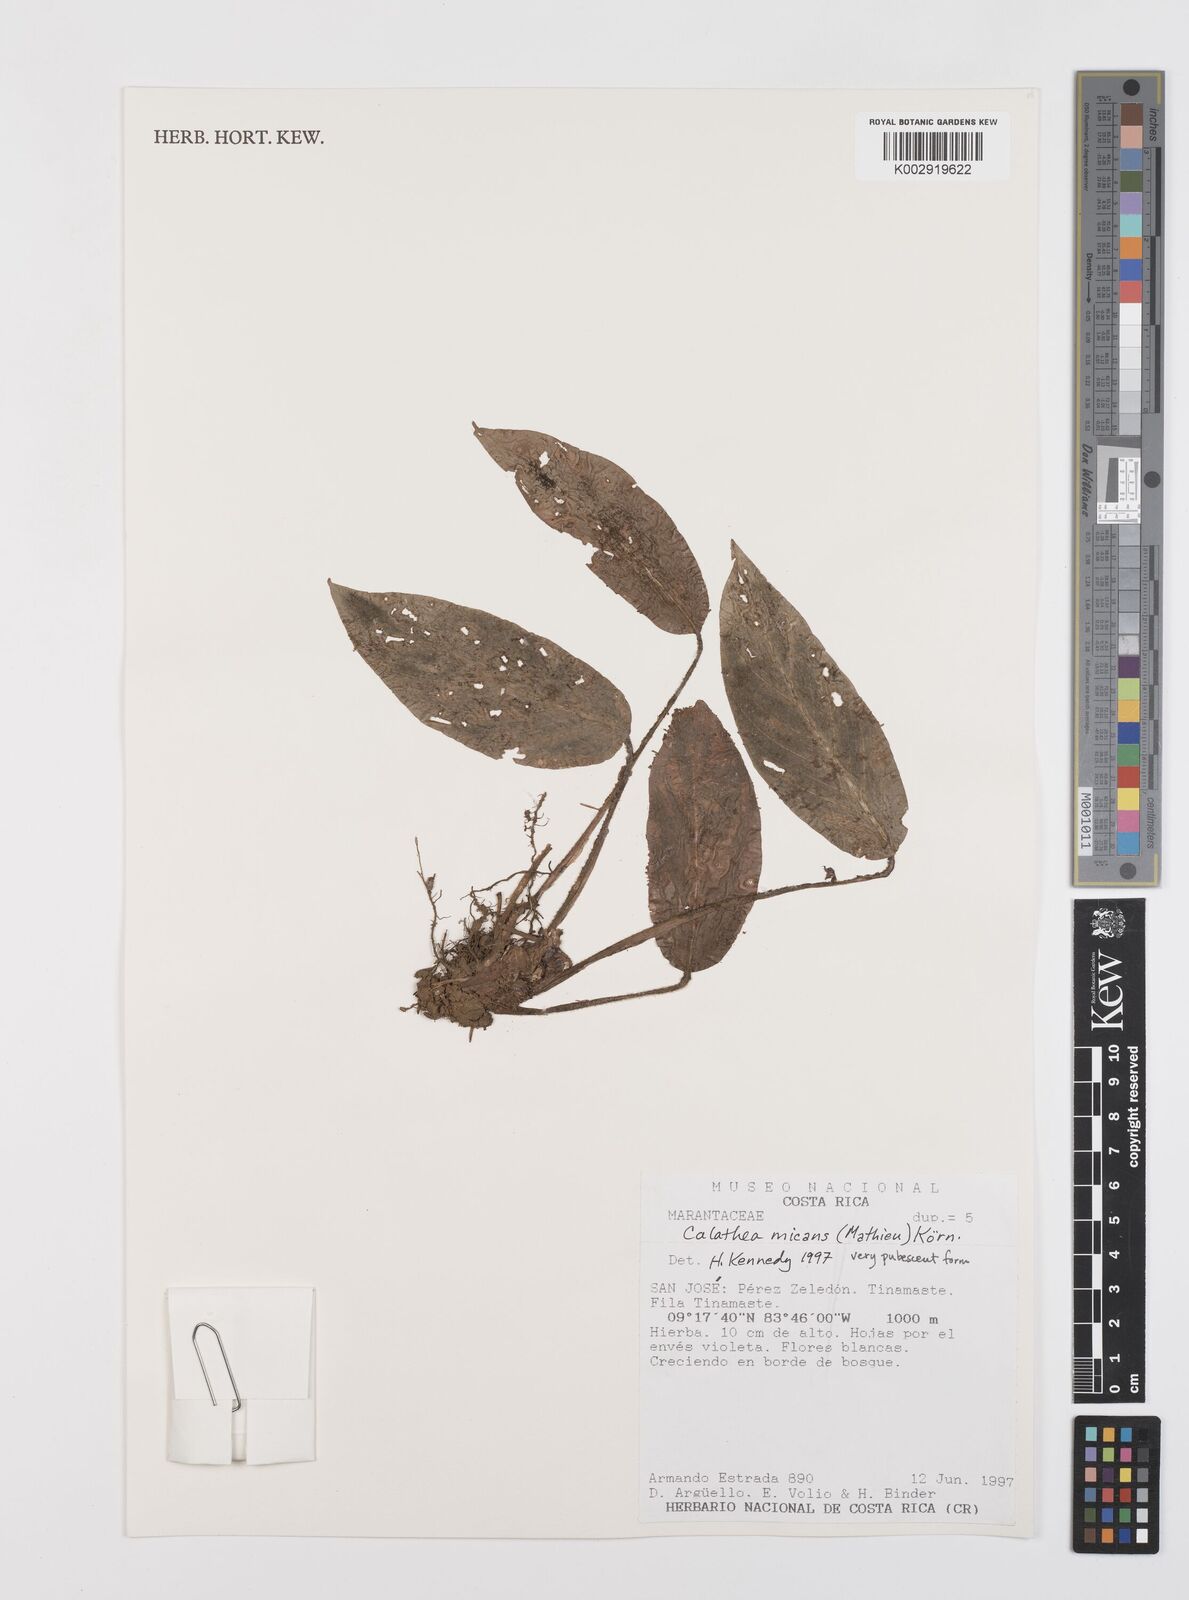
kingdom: Plantae
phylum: Tracheophyta
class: Liliopsida
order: Zingiberales
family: Marantaceae
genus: Goeppertia
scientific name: Goeppertia micans
